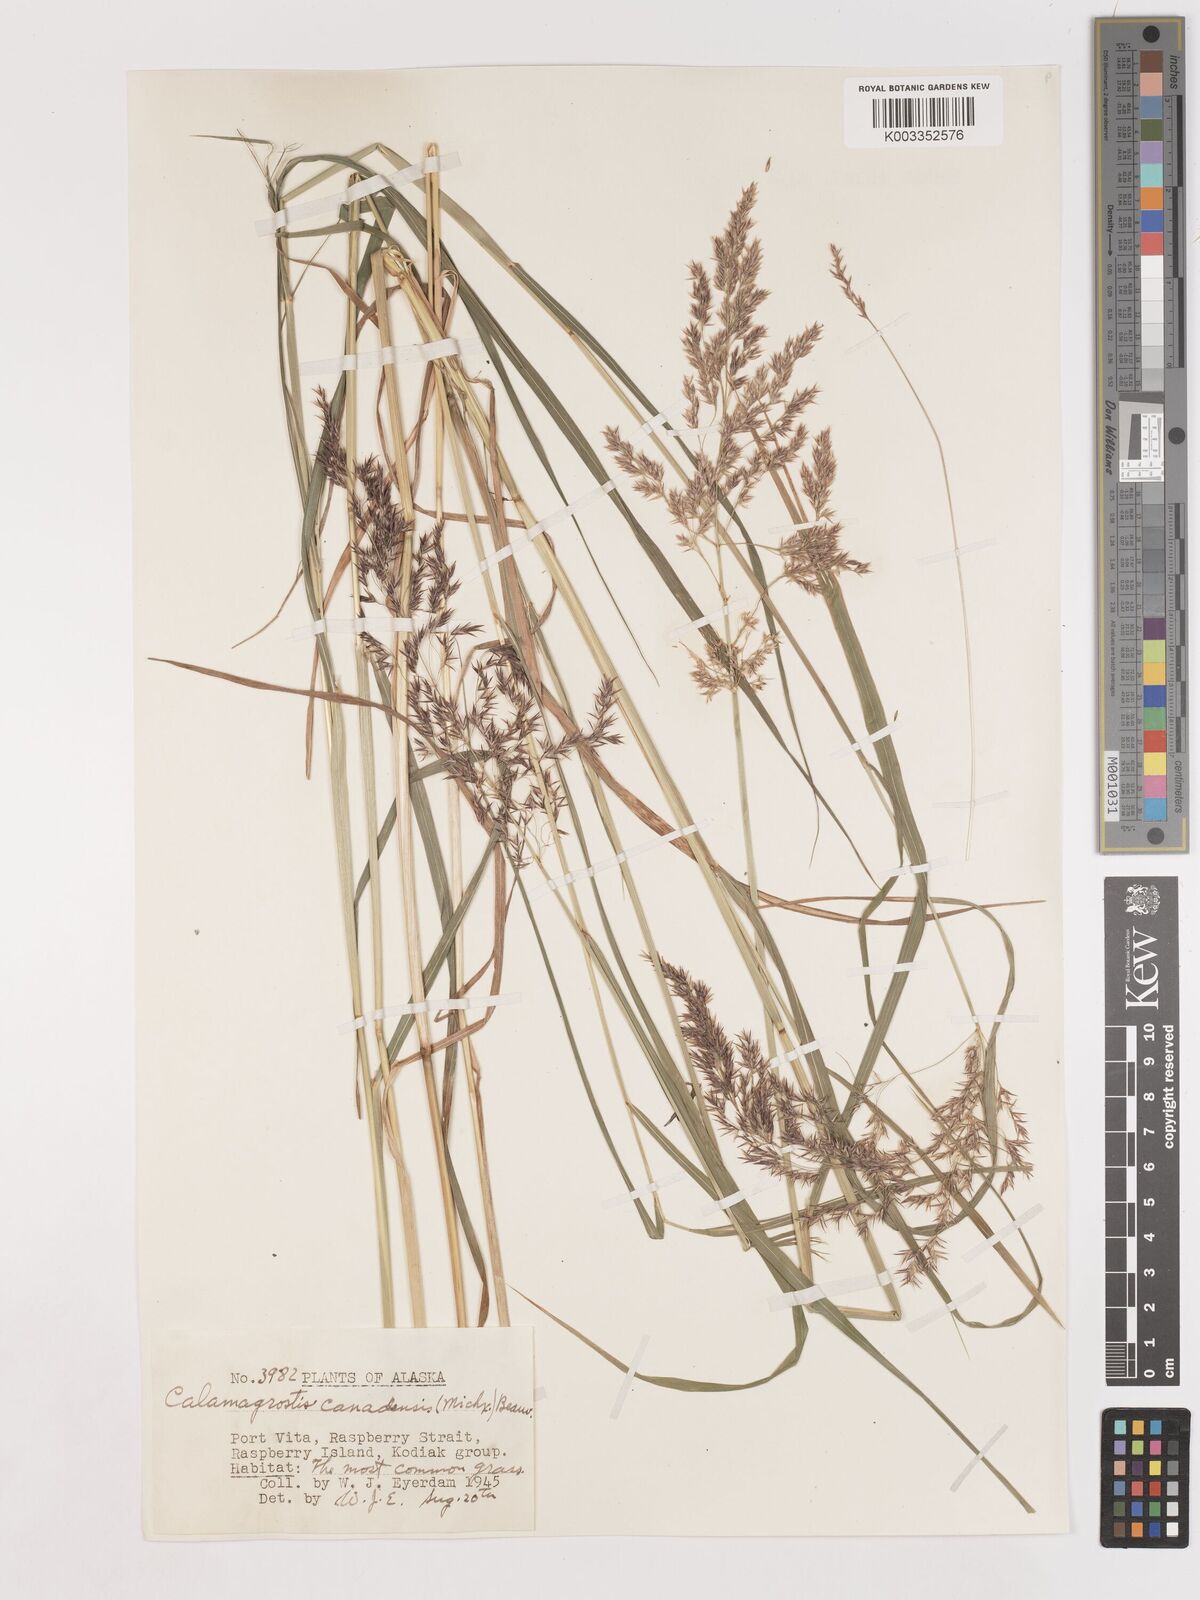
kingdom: Plantae
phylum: Tracheophyta
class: Liliopsida
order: Poales
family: Poaceae
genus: Calamagrostis
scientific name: Calamagrostis canadensis
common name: Canada bluejoint
